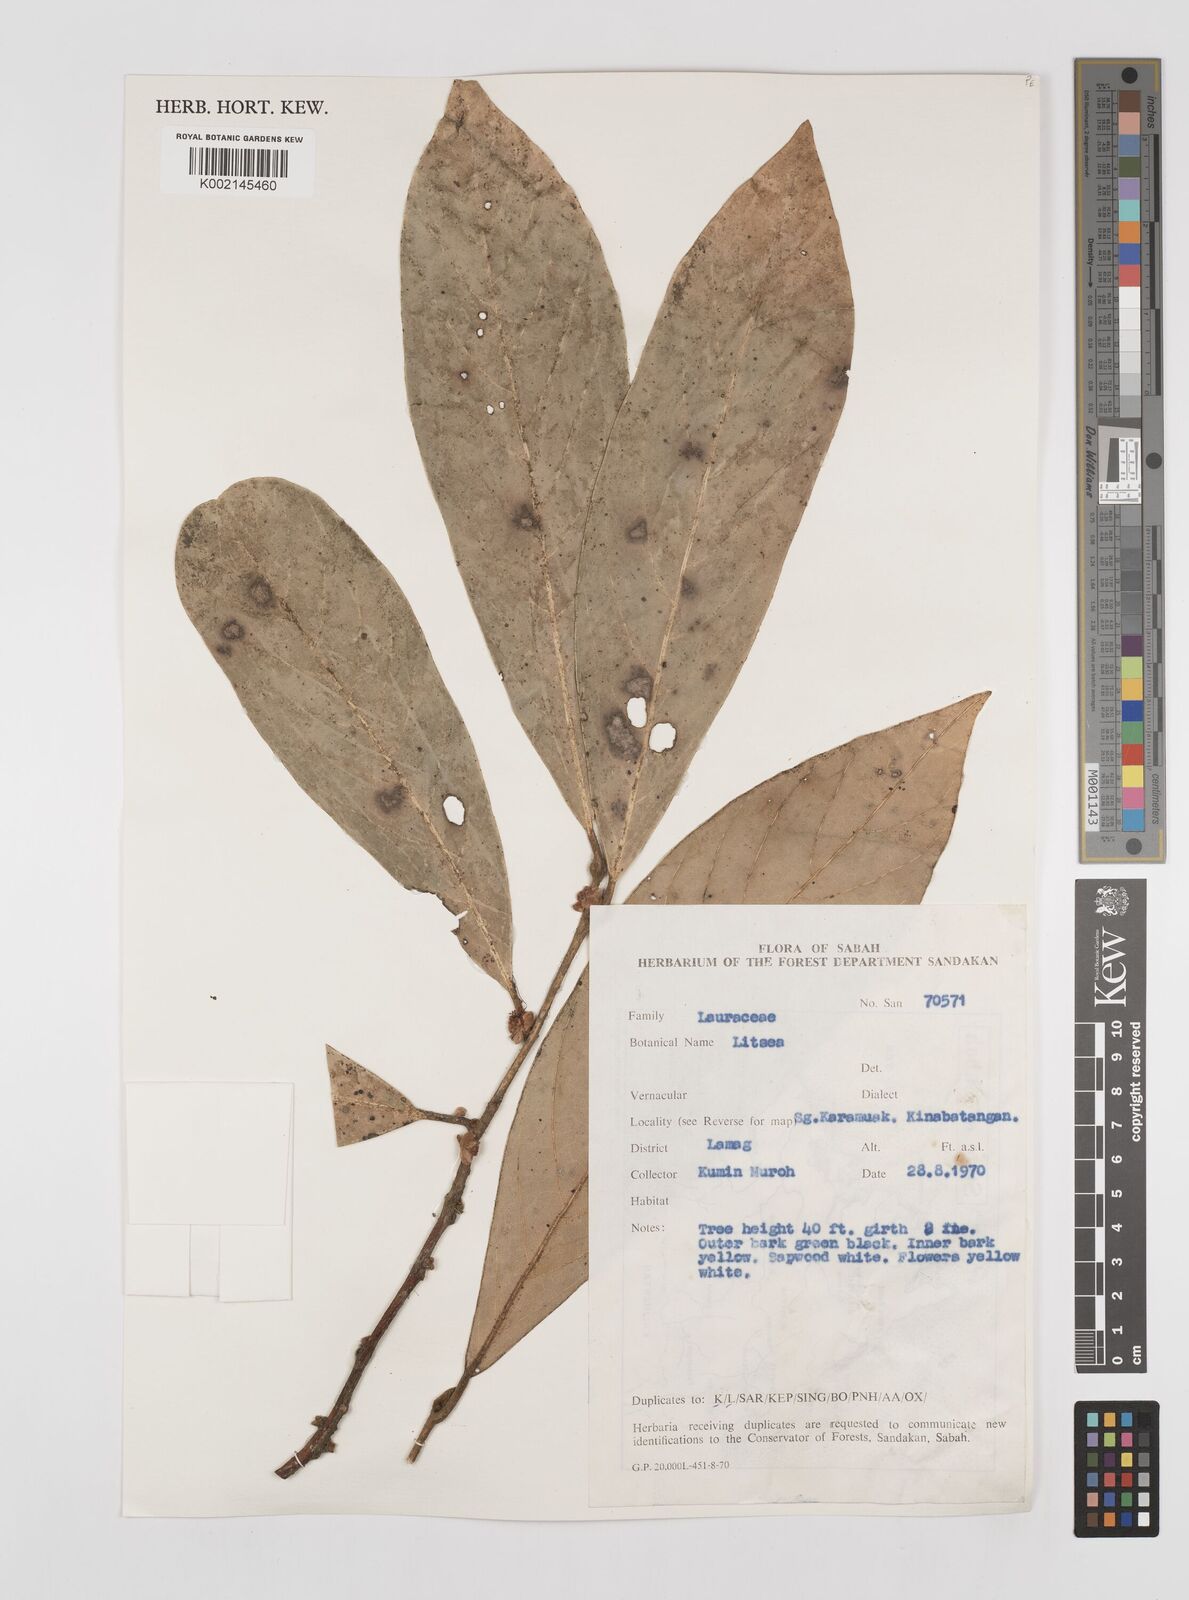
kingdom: Plantae
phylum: Tracheophyta
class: Magnoliopsida
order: Laurales
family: Lauraceae
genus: Litsea
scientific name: Litsea
